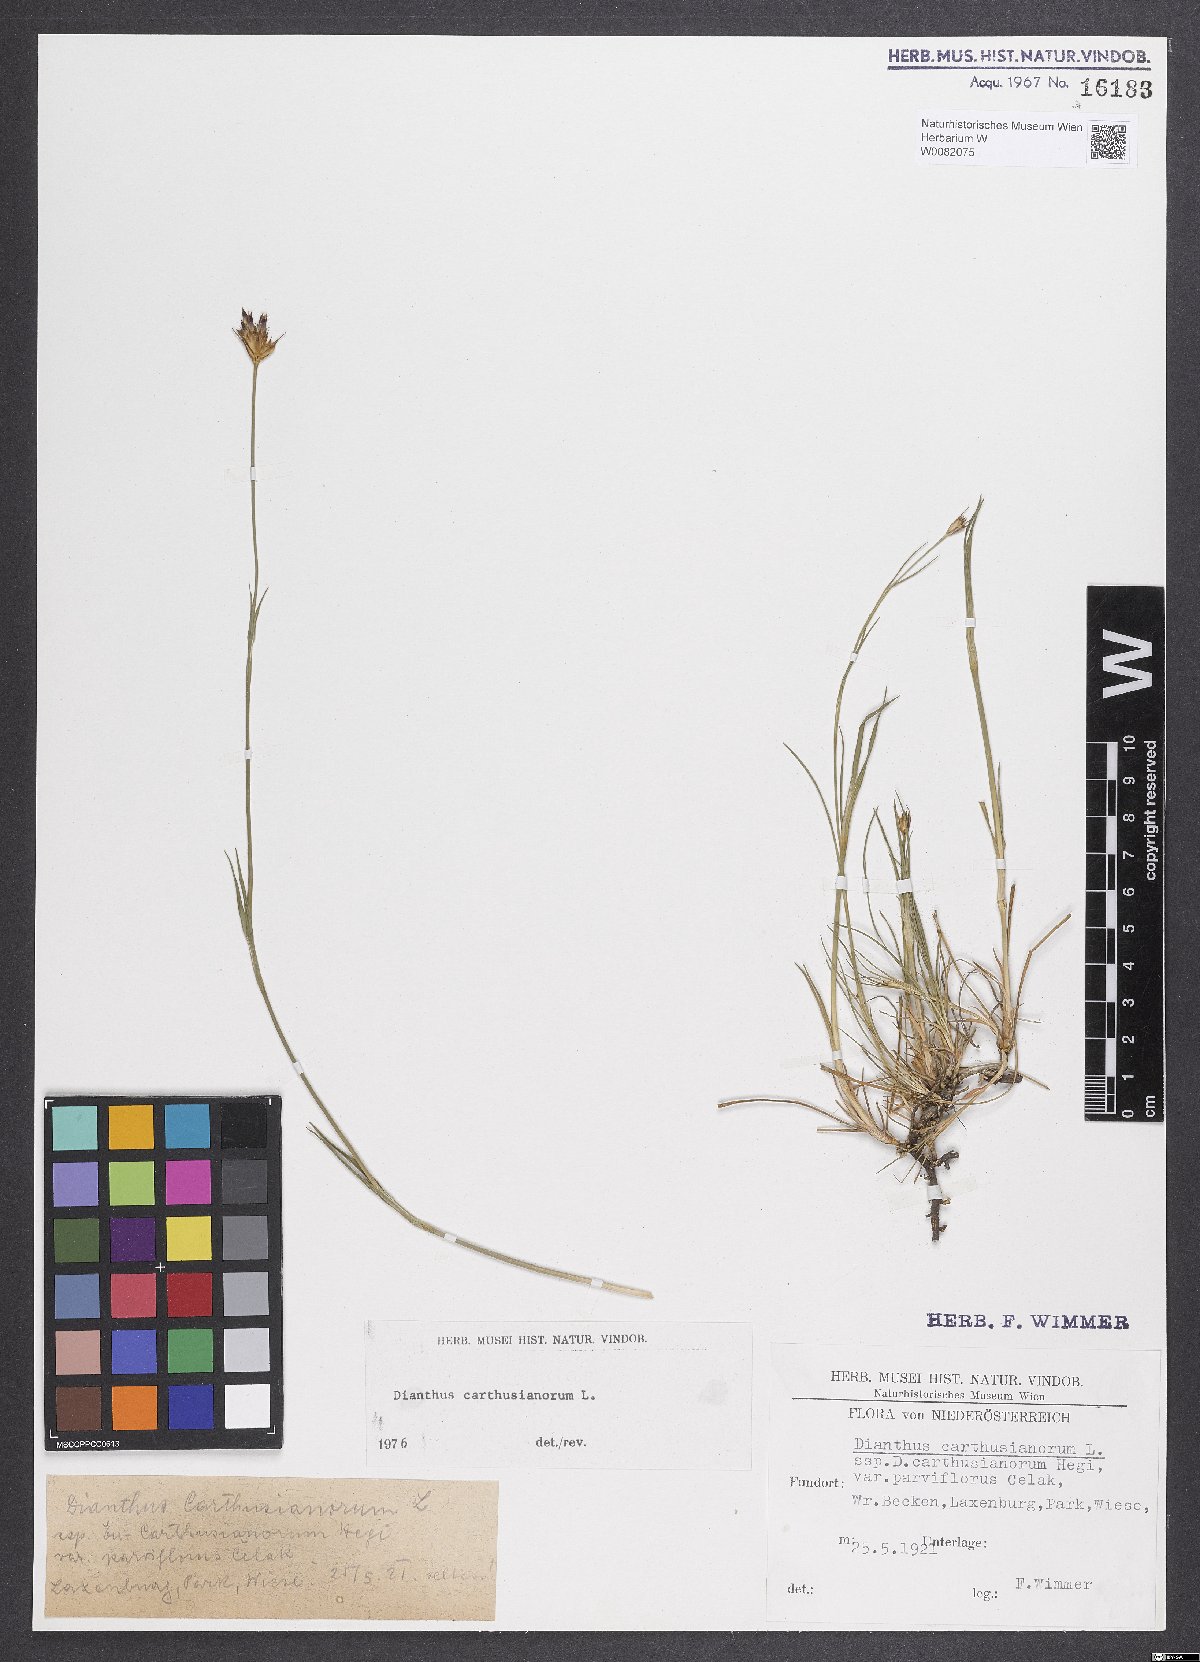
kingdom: Plantae
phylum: Tracheophyta
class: Magnoliopsida
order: Caryophyllales
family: Caryophyllaceae
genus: Dianthus
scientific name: Dianthus carthusianorum
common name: Carthusian pink
